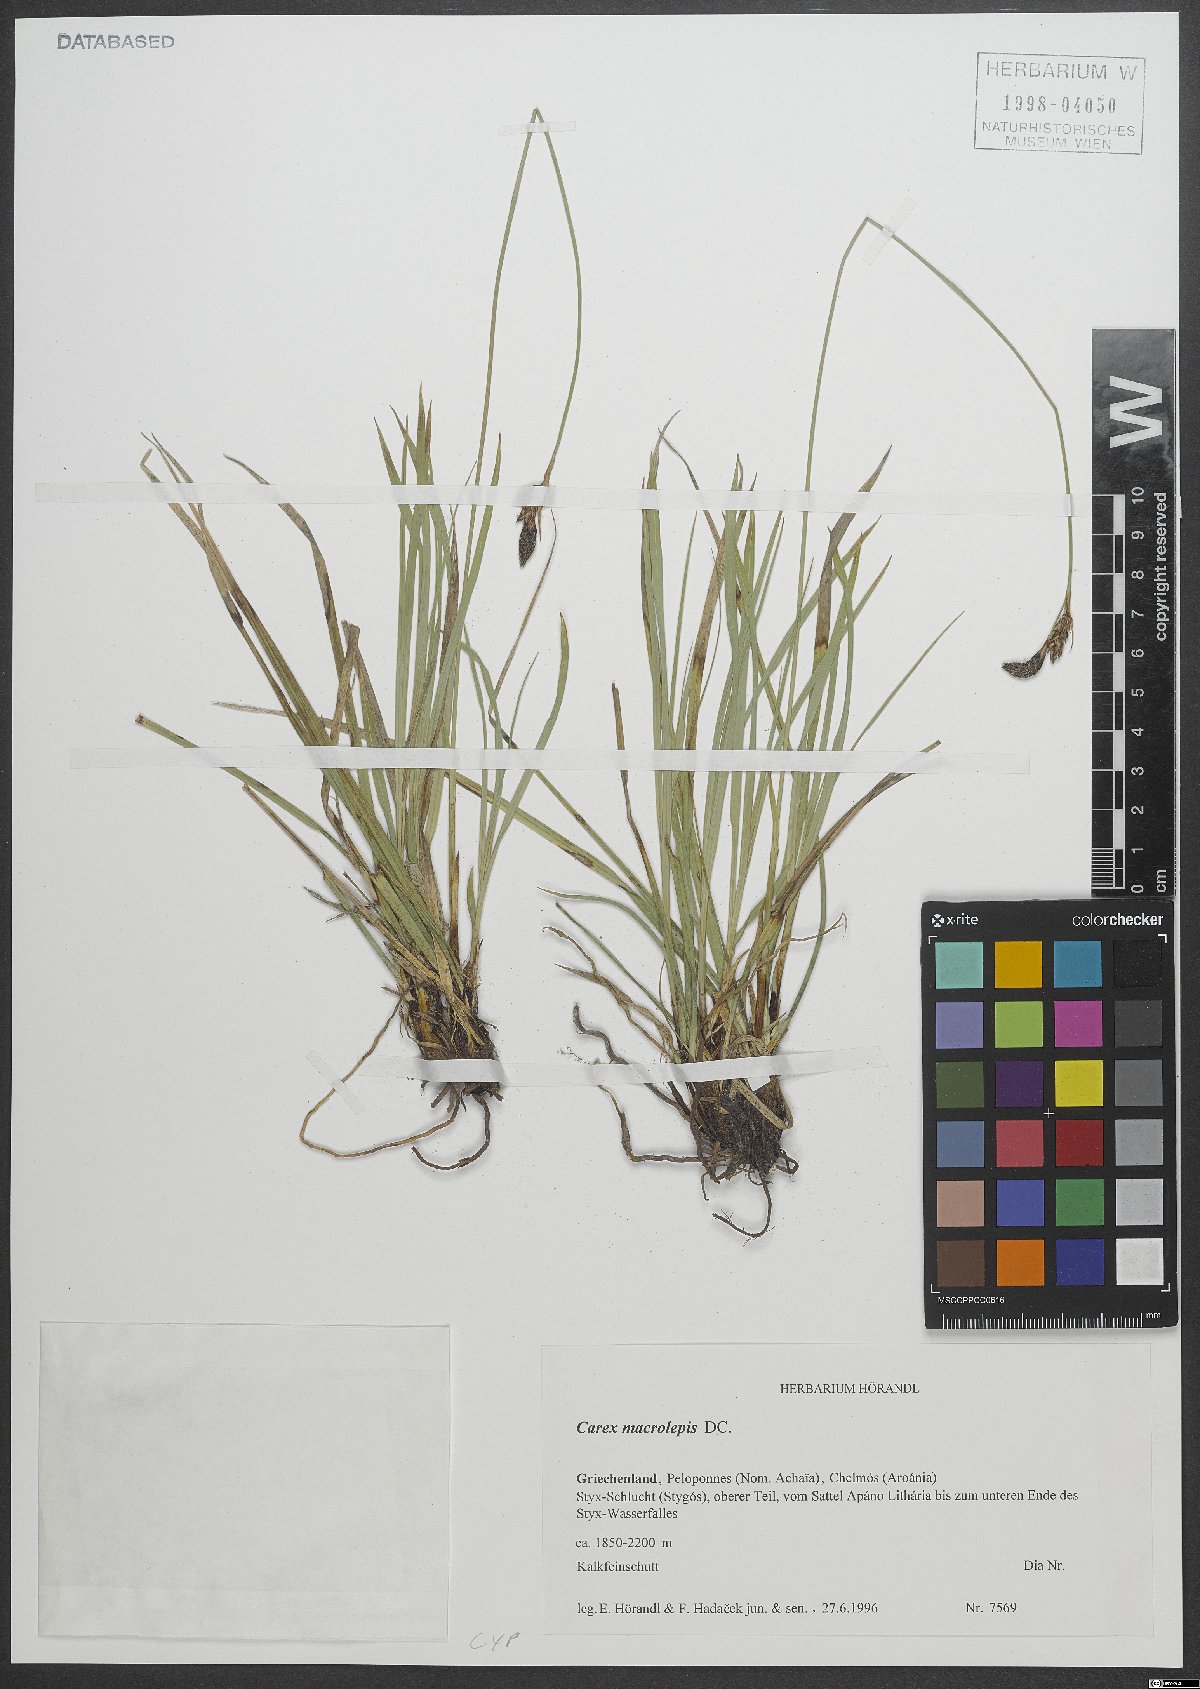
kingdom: Plantae
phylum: Tracheophyta
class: Magnoliopsida
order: Lamiales
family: Lamiaceae
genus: Origanum
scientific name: Origanum elongatum
